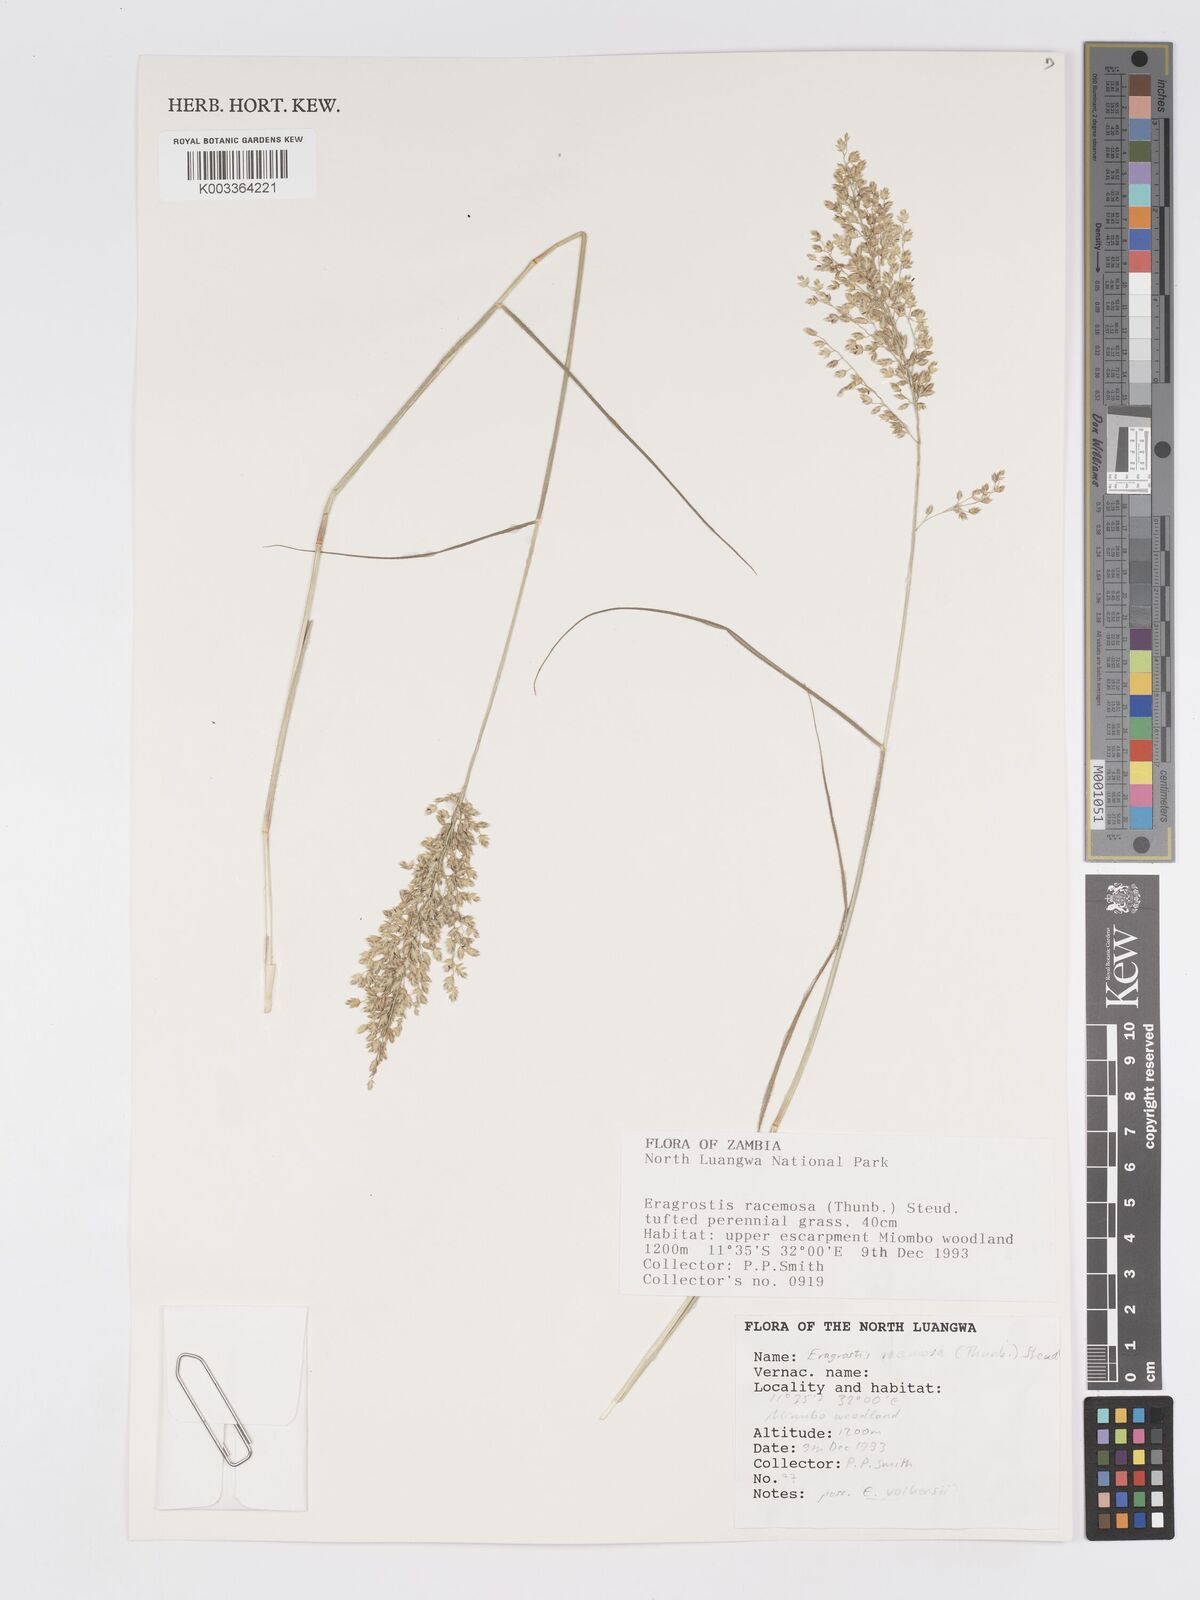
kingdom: Plantae
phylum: Tracheophyta
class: Liliopsida
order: Poales
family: Poaceae
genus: Eragrostis
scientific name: Eragrostis racemosa
